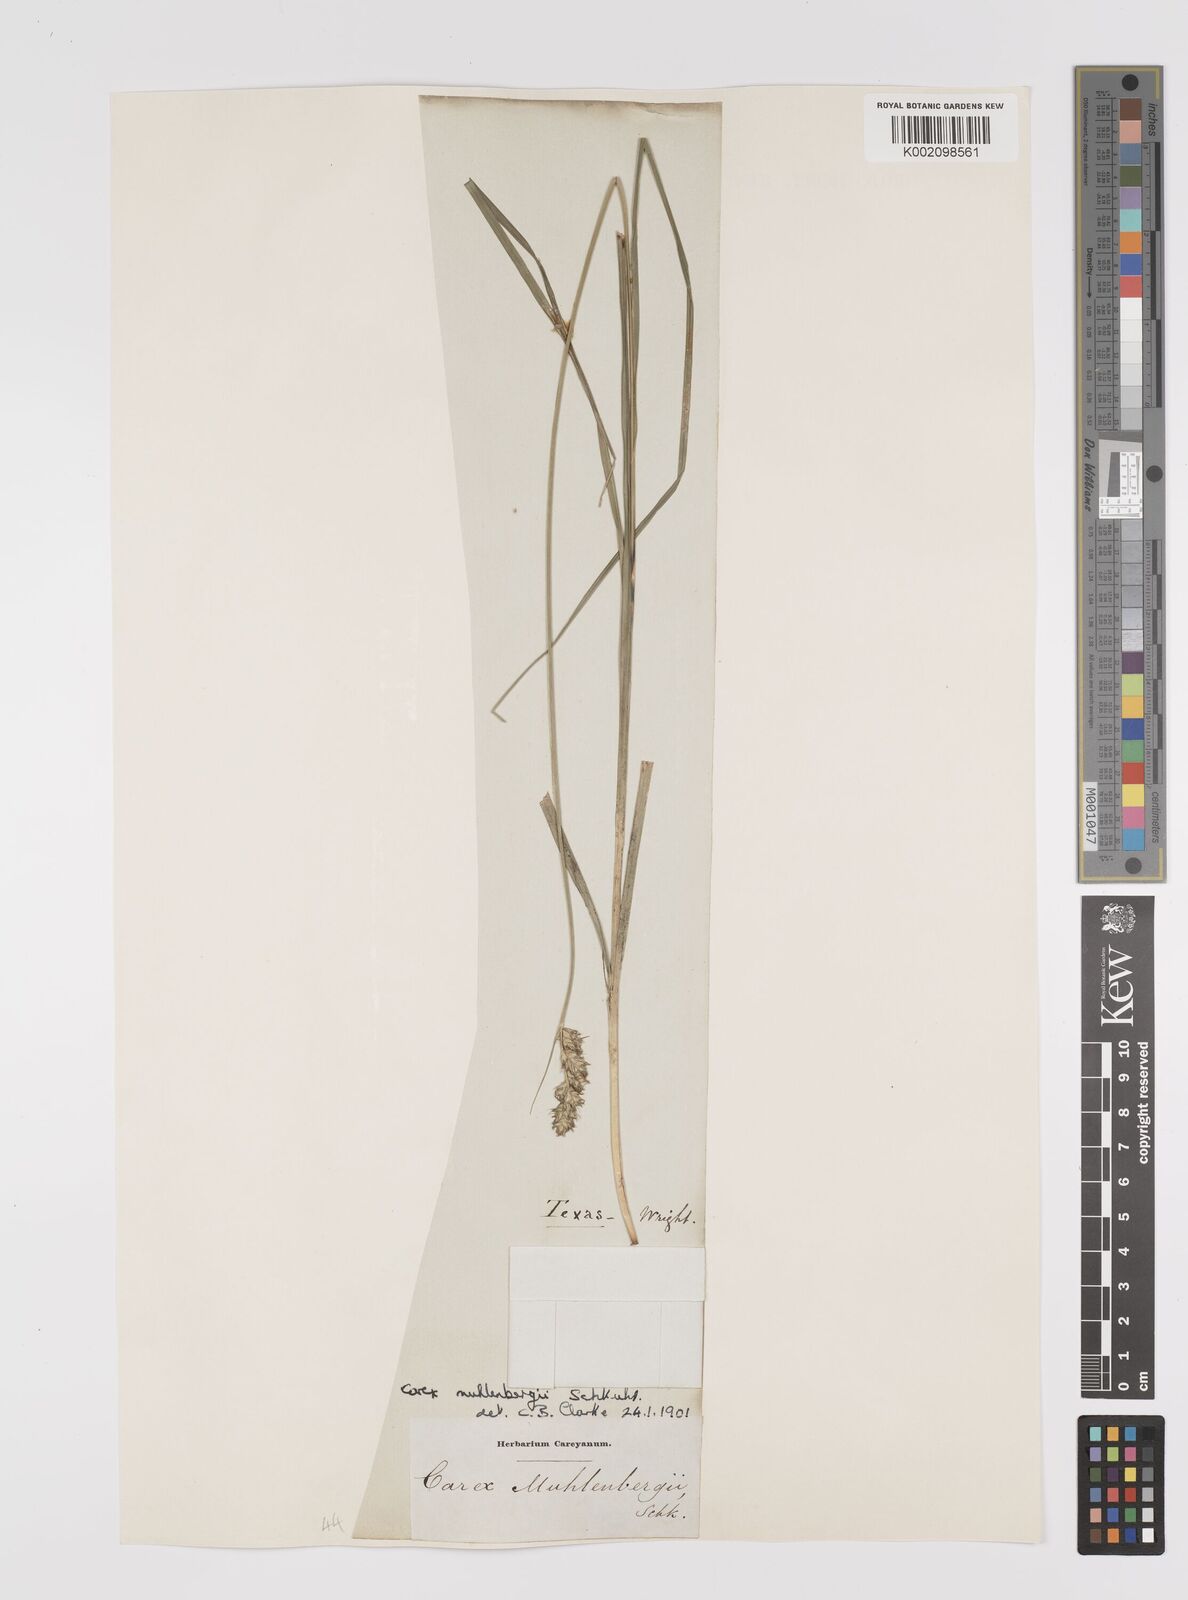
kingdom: Plantae
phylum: Tracheophyta
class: Liliopsida
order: Poales
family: Cyperaceae
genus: Carex
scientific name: Carex vulpinoidea
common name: American fox-sedge
